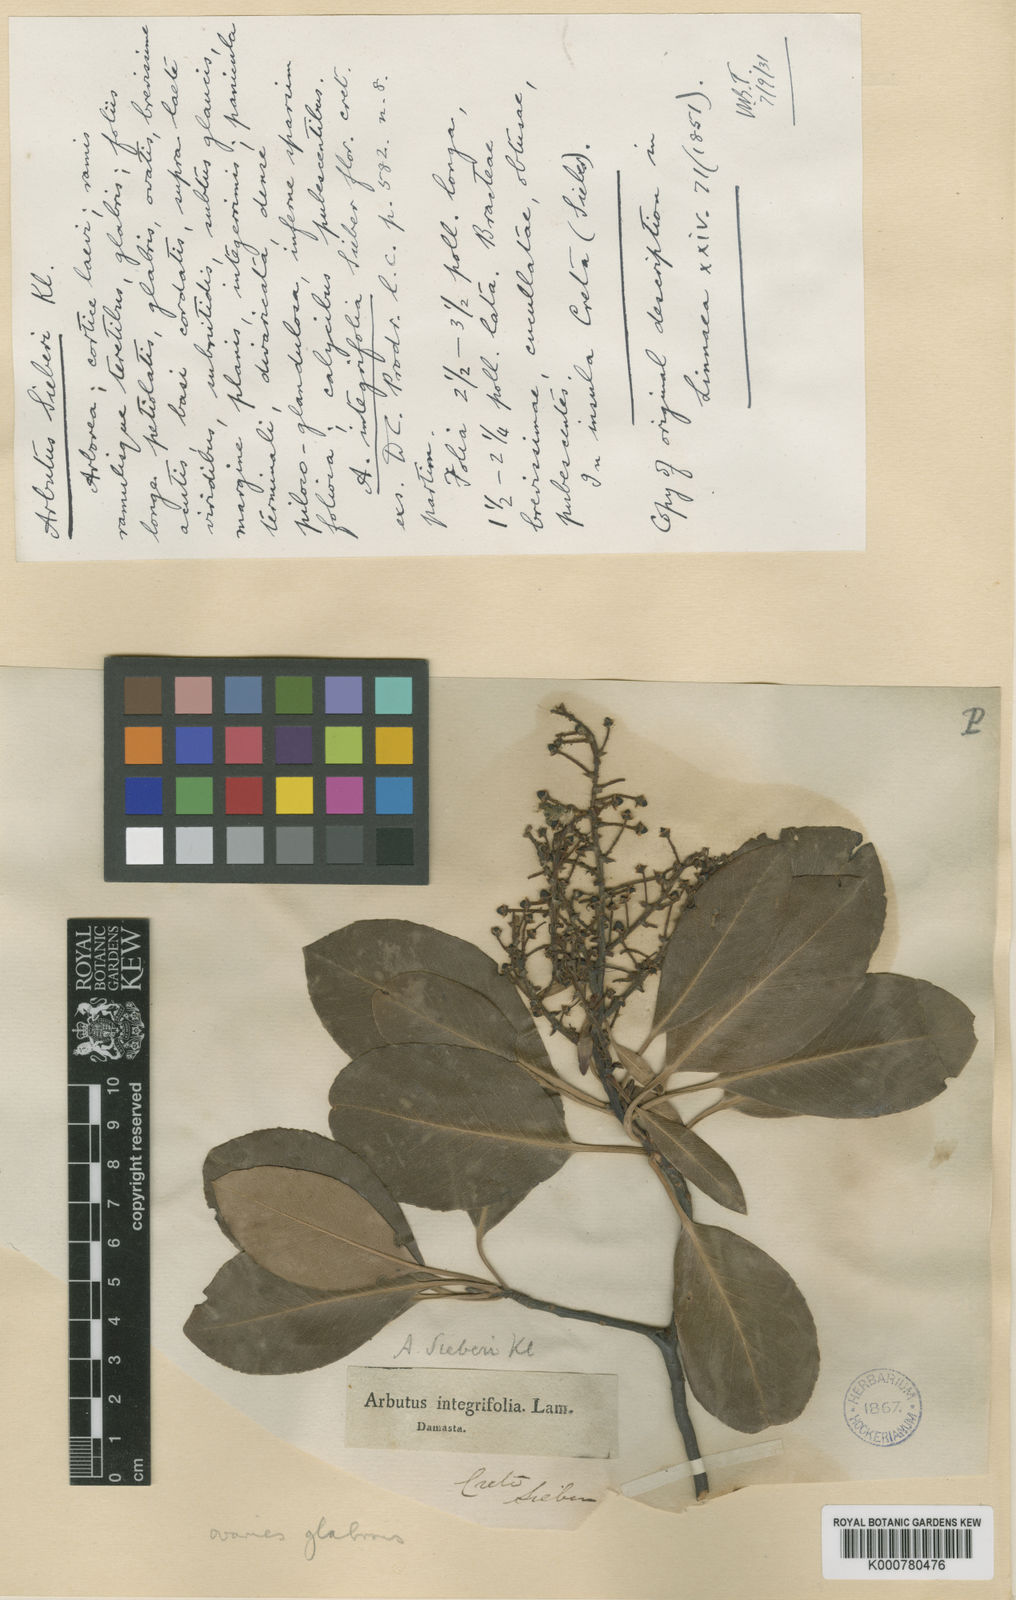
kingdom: Plantae
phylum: Tracheophyta
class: Magnoliopsida
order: Ericales
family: Ericaceae
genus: Arbutus
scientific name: Arbutus unedo
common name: Strawberry-tree
